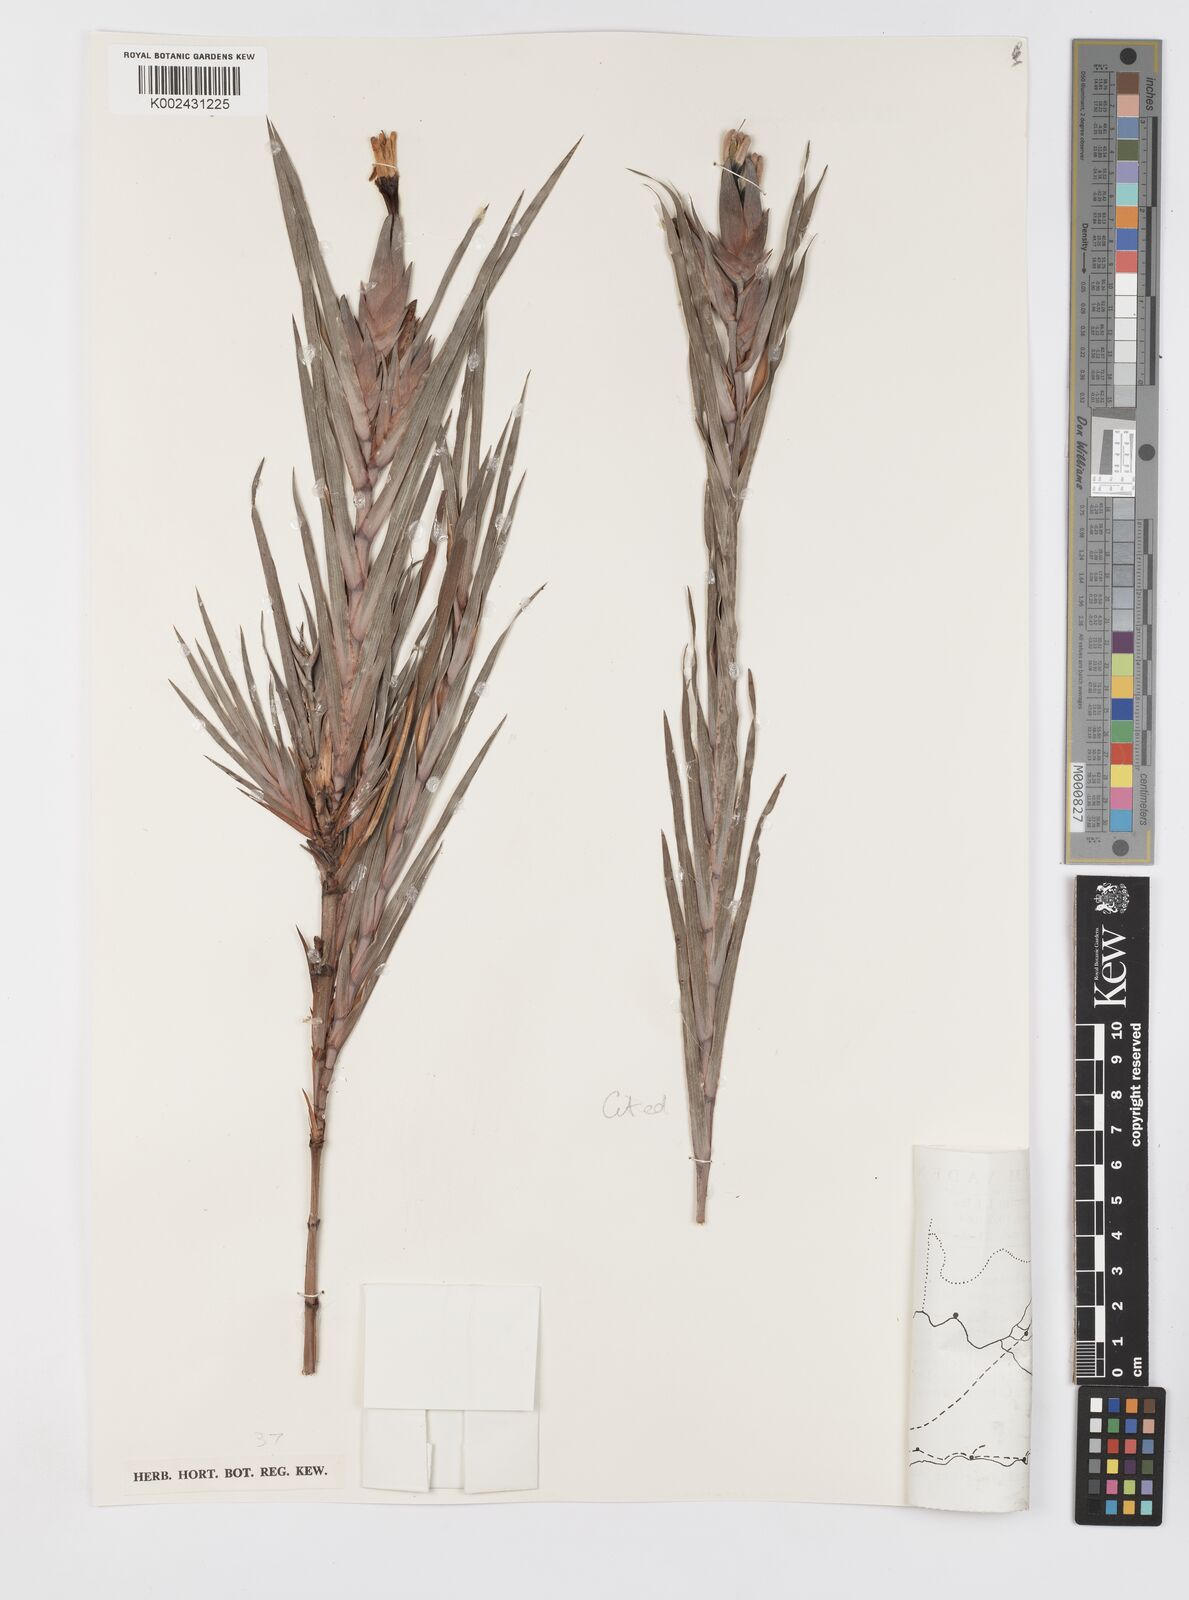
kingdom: Plantae
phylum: Tracheophyta
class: Liliopsida
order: Asparagales
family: Iridaceae
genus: Witsenia
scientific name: Witsenia maura
